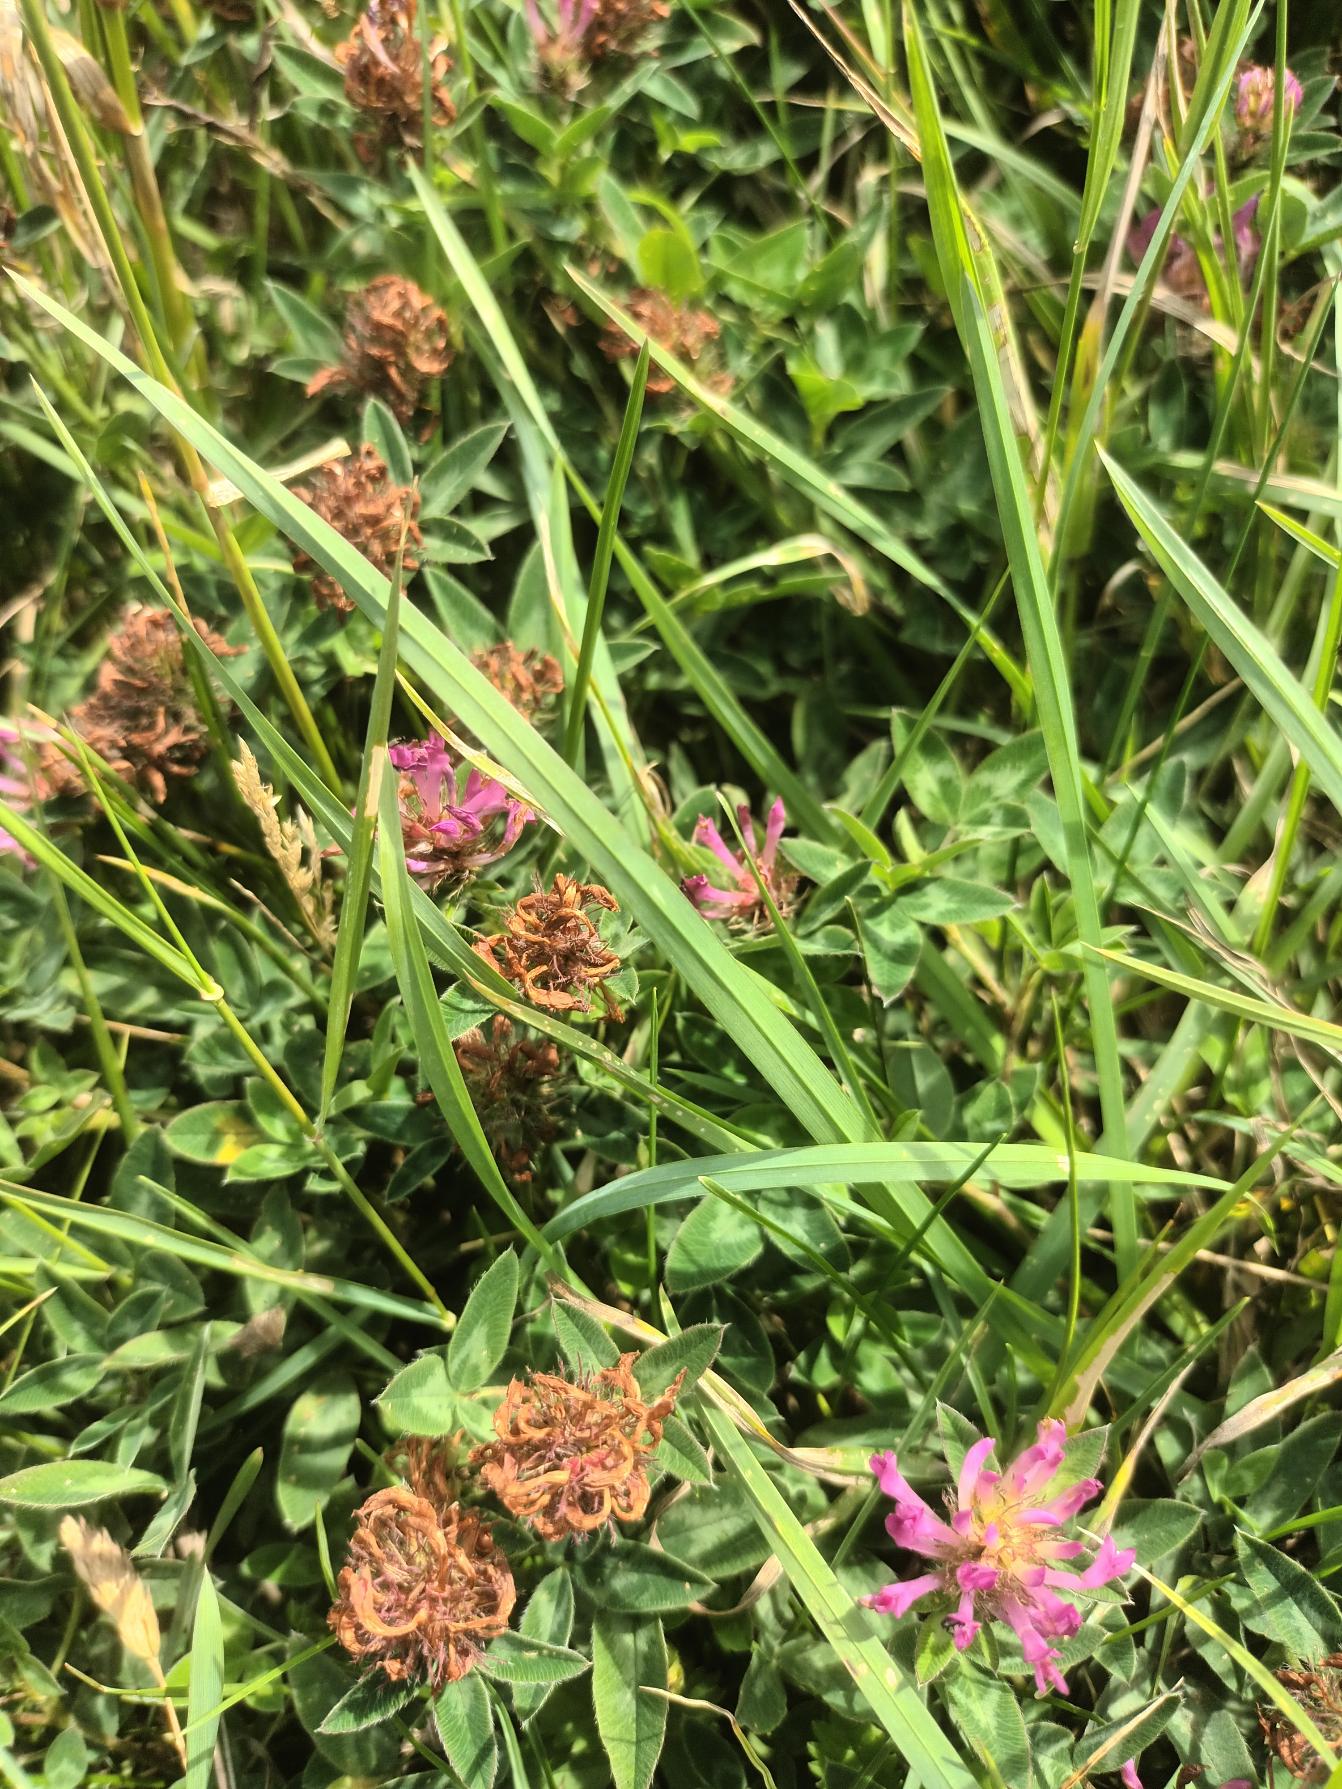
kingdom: Plantae
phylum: Tracheophyta
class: Magnoliopsida
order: Fabales
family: Fabaceae
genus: Trifolium
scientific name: Trifolium medium
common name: Bugtet kløver
